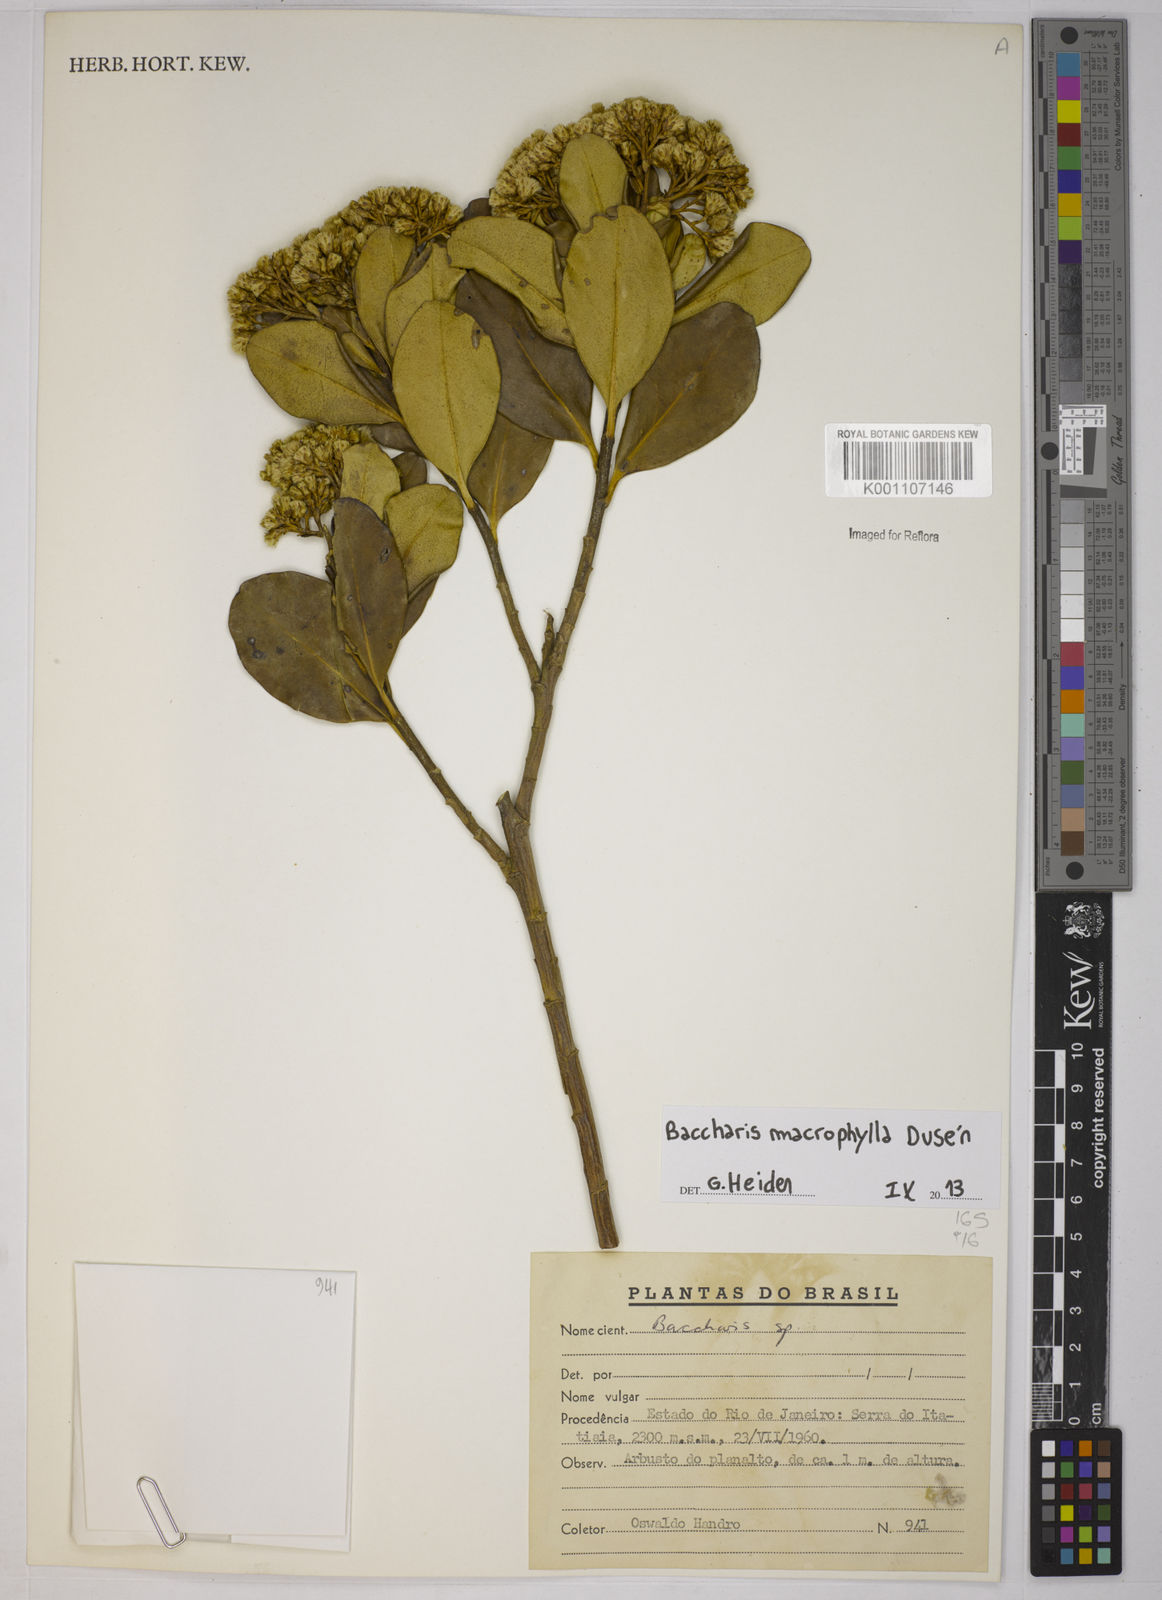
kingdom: Plantae
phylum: Tracheophyta
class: Magnoliopsida
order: Asterales
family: Asteraceae
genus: Baccharis
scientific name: Baccharis
